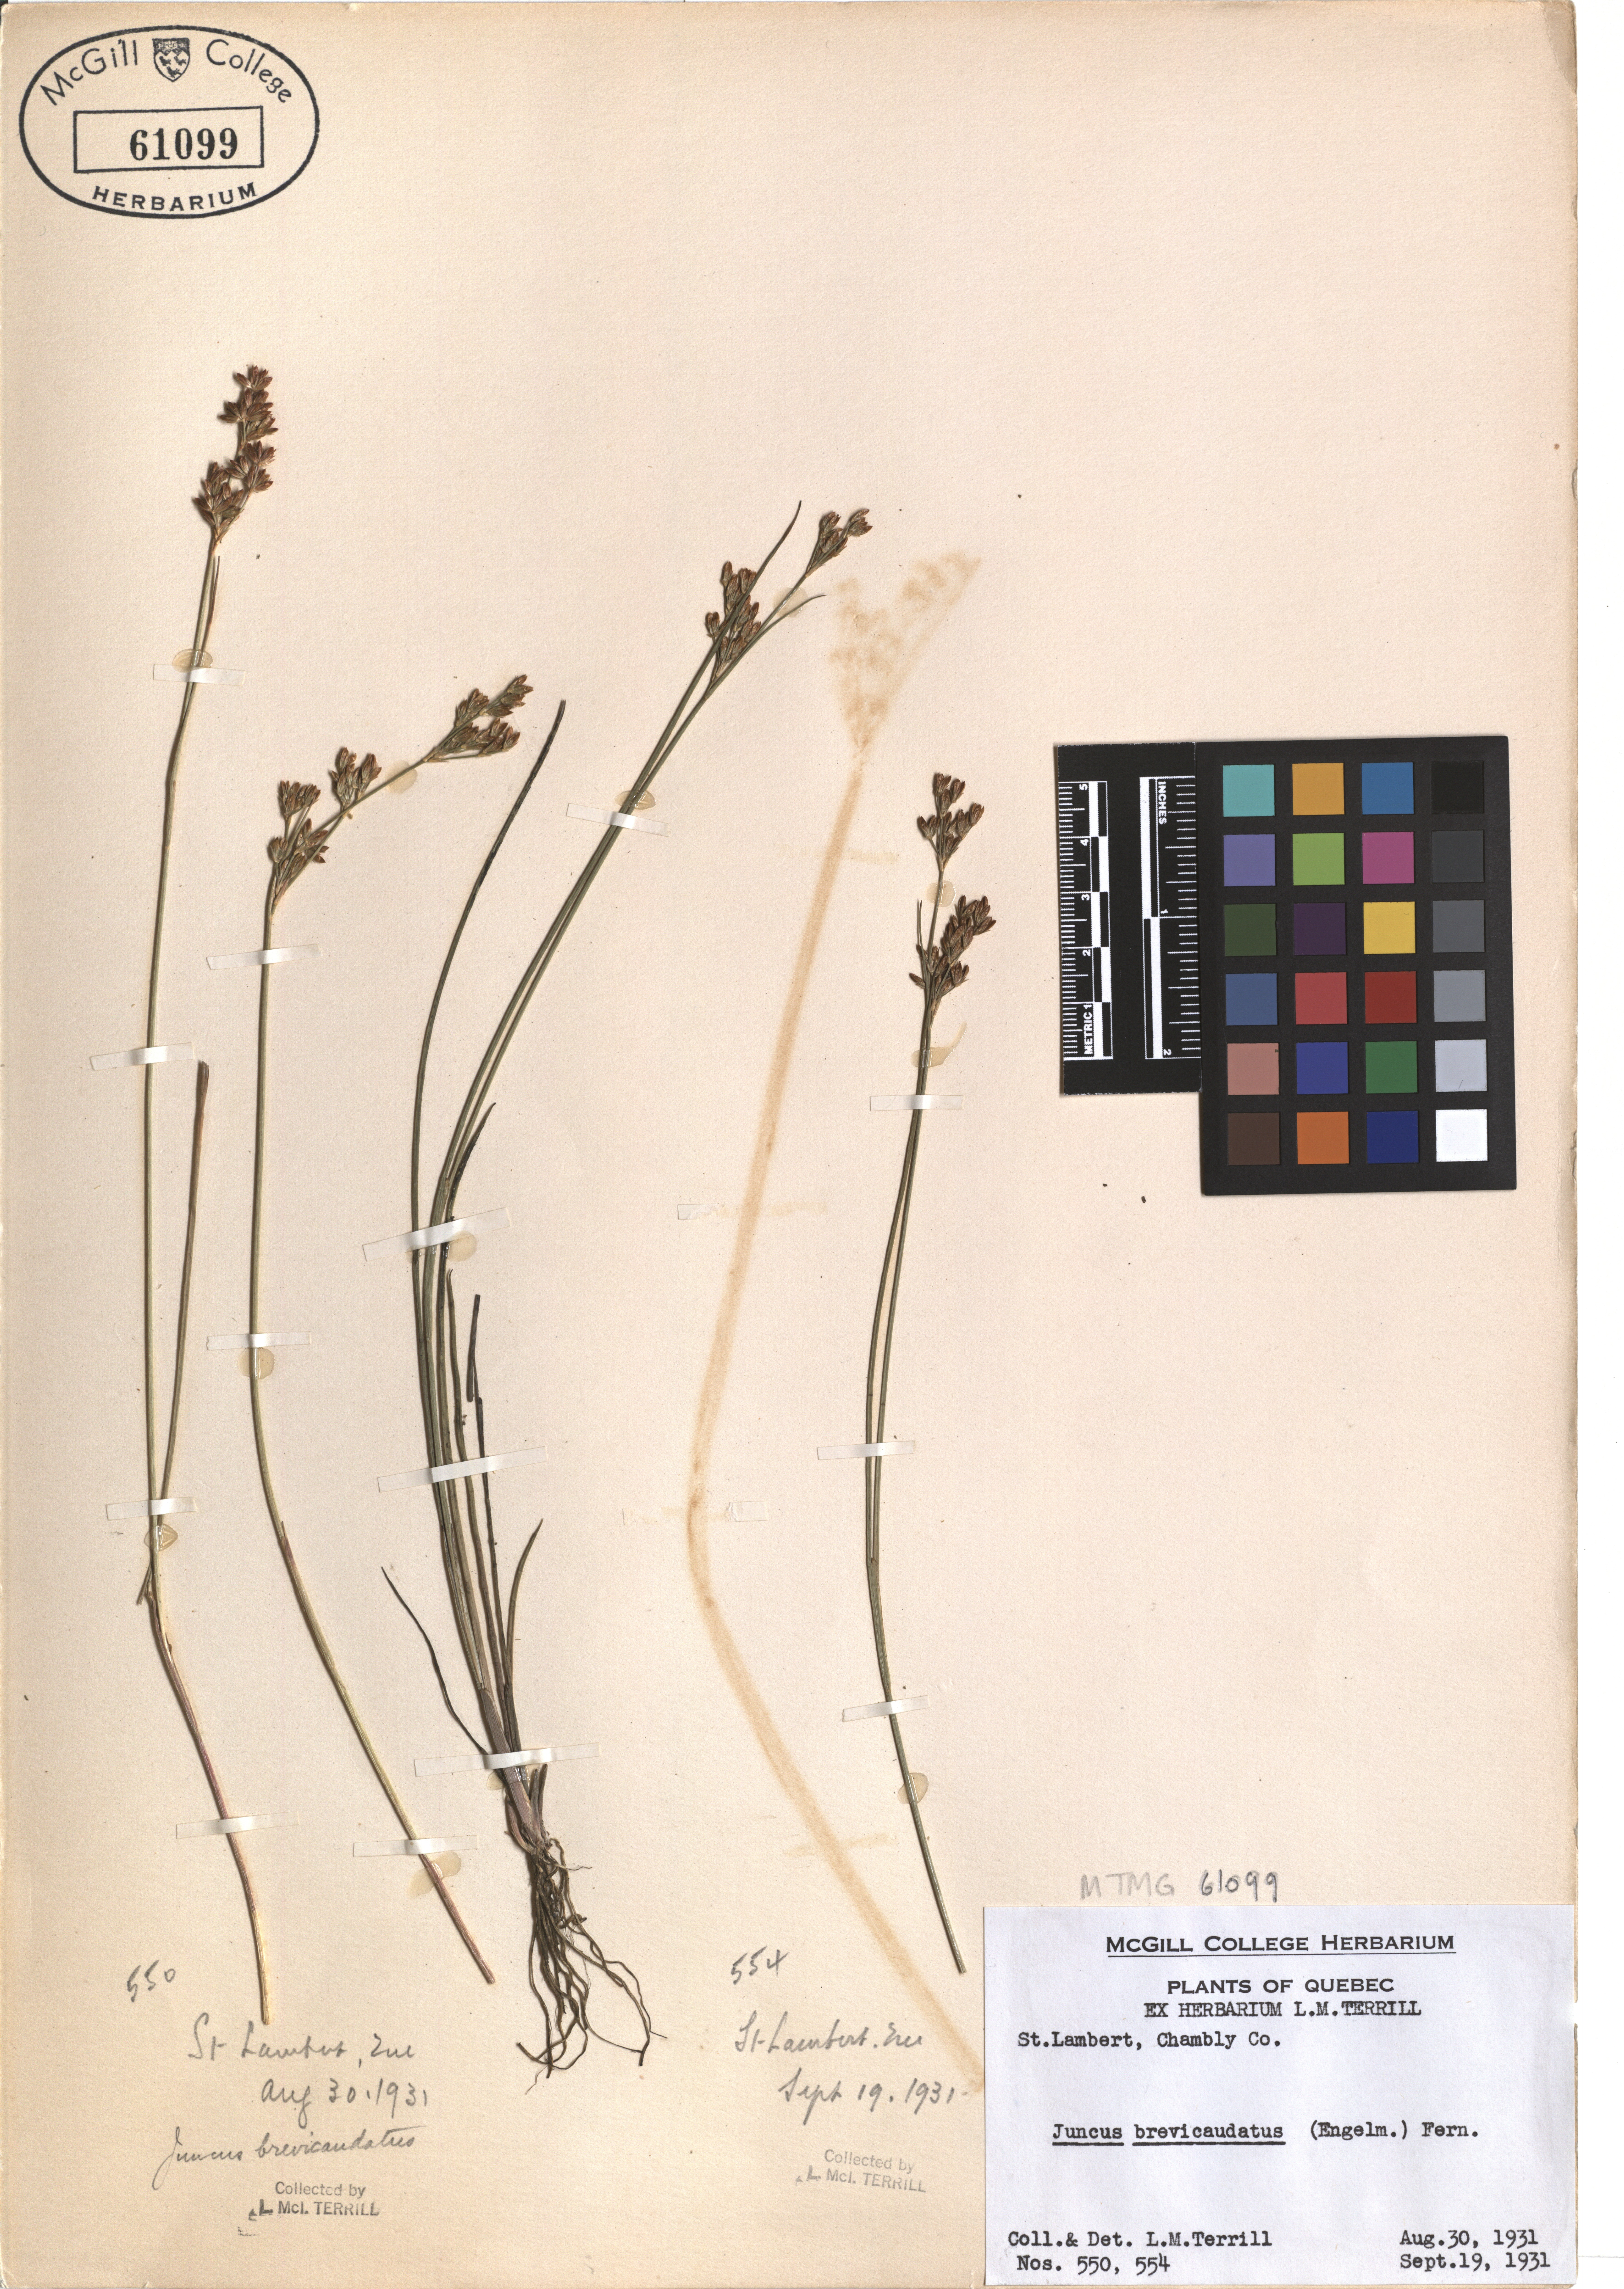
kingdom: Plantae
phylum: Tracheophyta
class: Liliopsida
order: Poales
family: Juncaceae
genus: Juncus
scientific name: Juncus brevicaudatus
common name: Narrow-panicle rush
